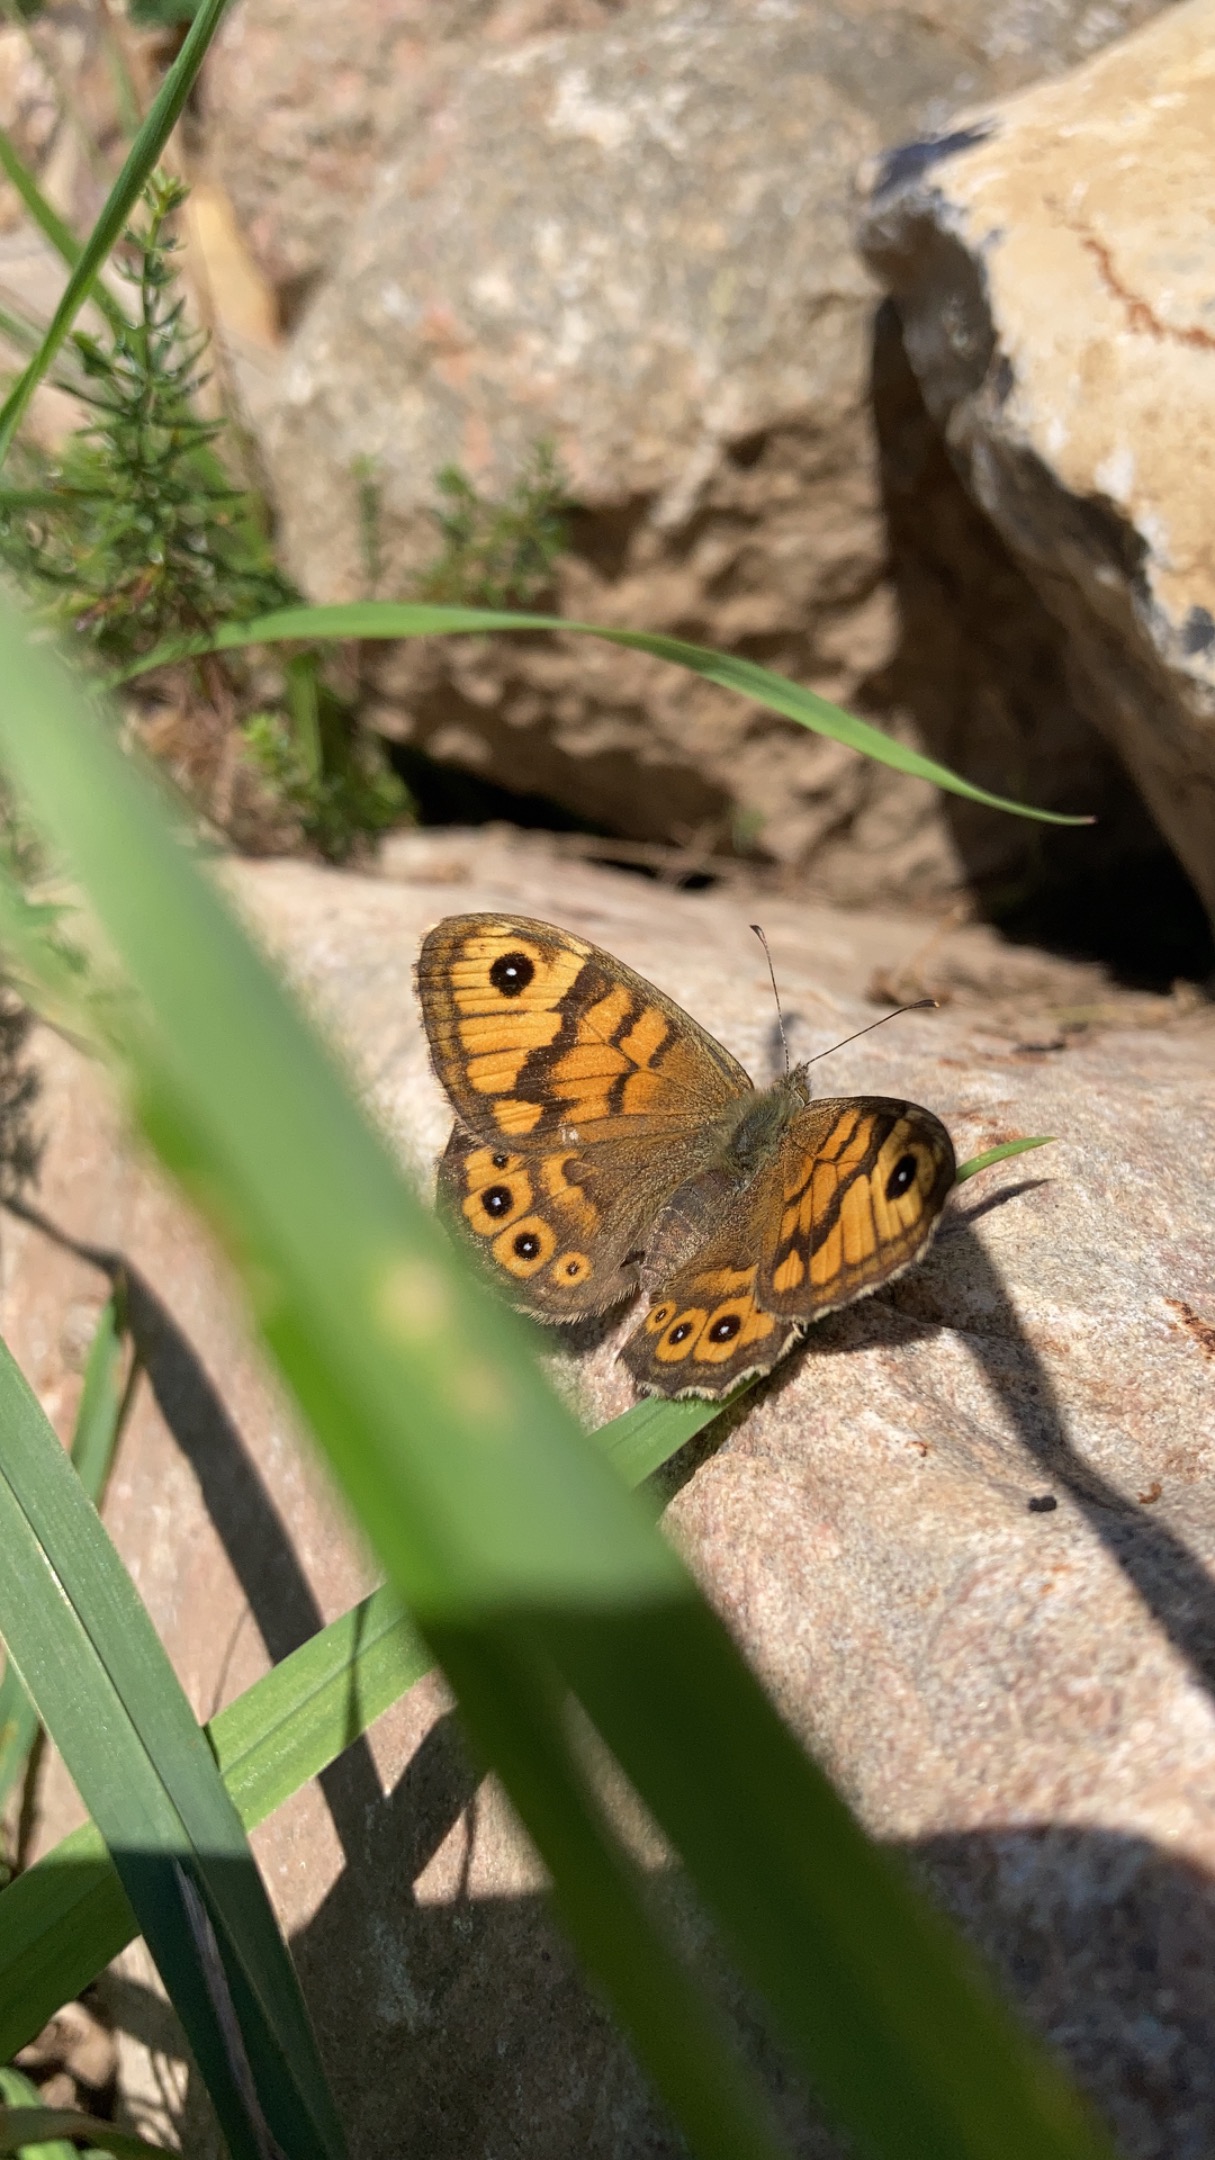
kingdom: Animalia
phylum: Arthropoda
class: Insecta
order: Lepidoptera
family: Nymphalidae
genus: Pararge
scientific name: Pararge Lasiommata megera
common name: Vejrandøje
